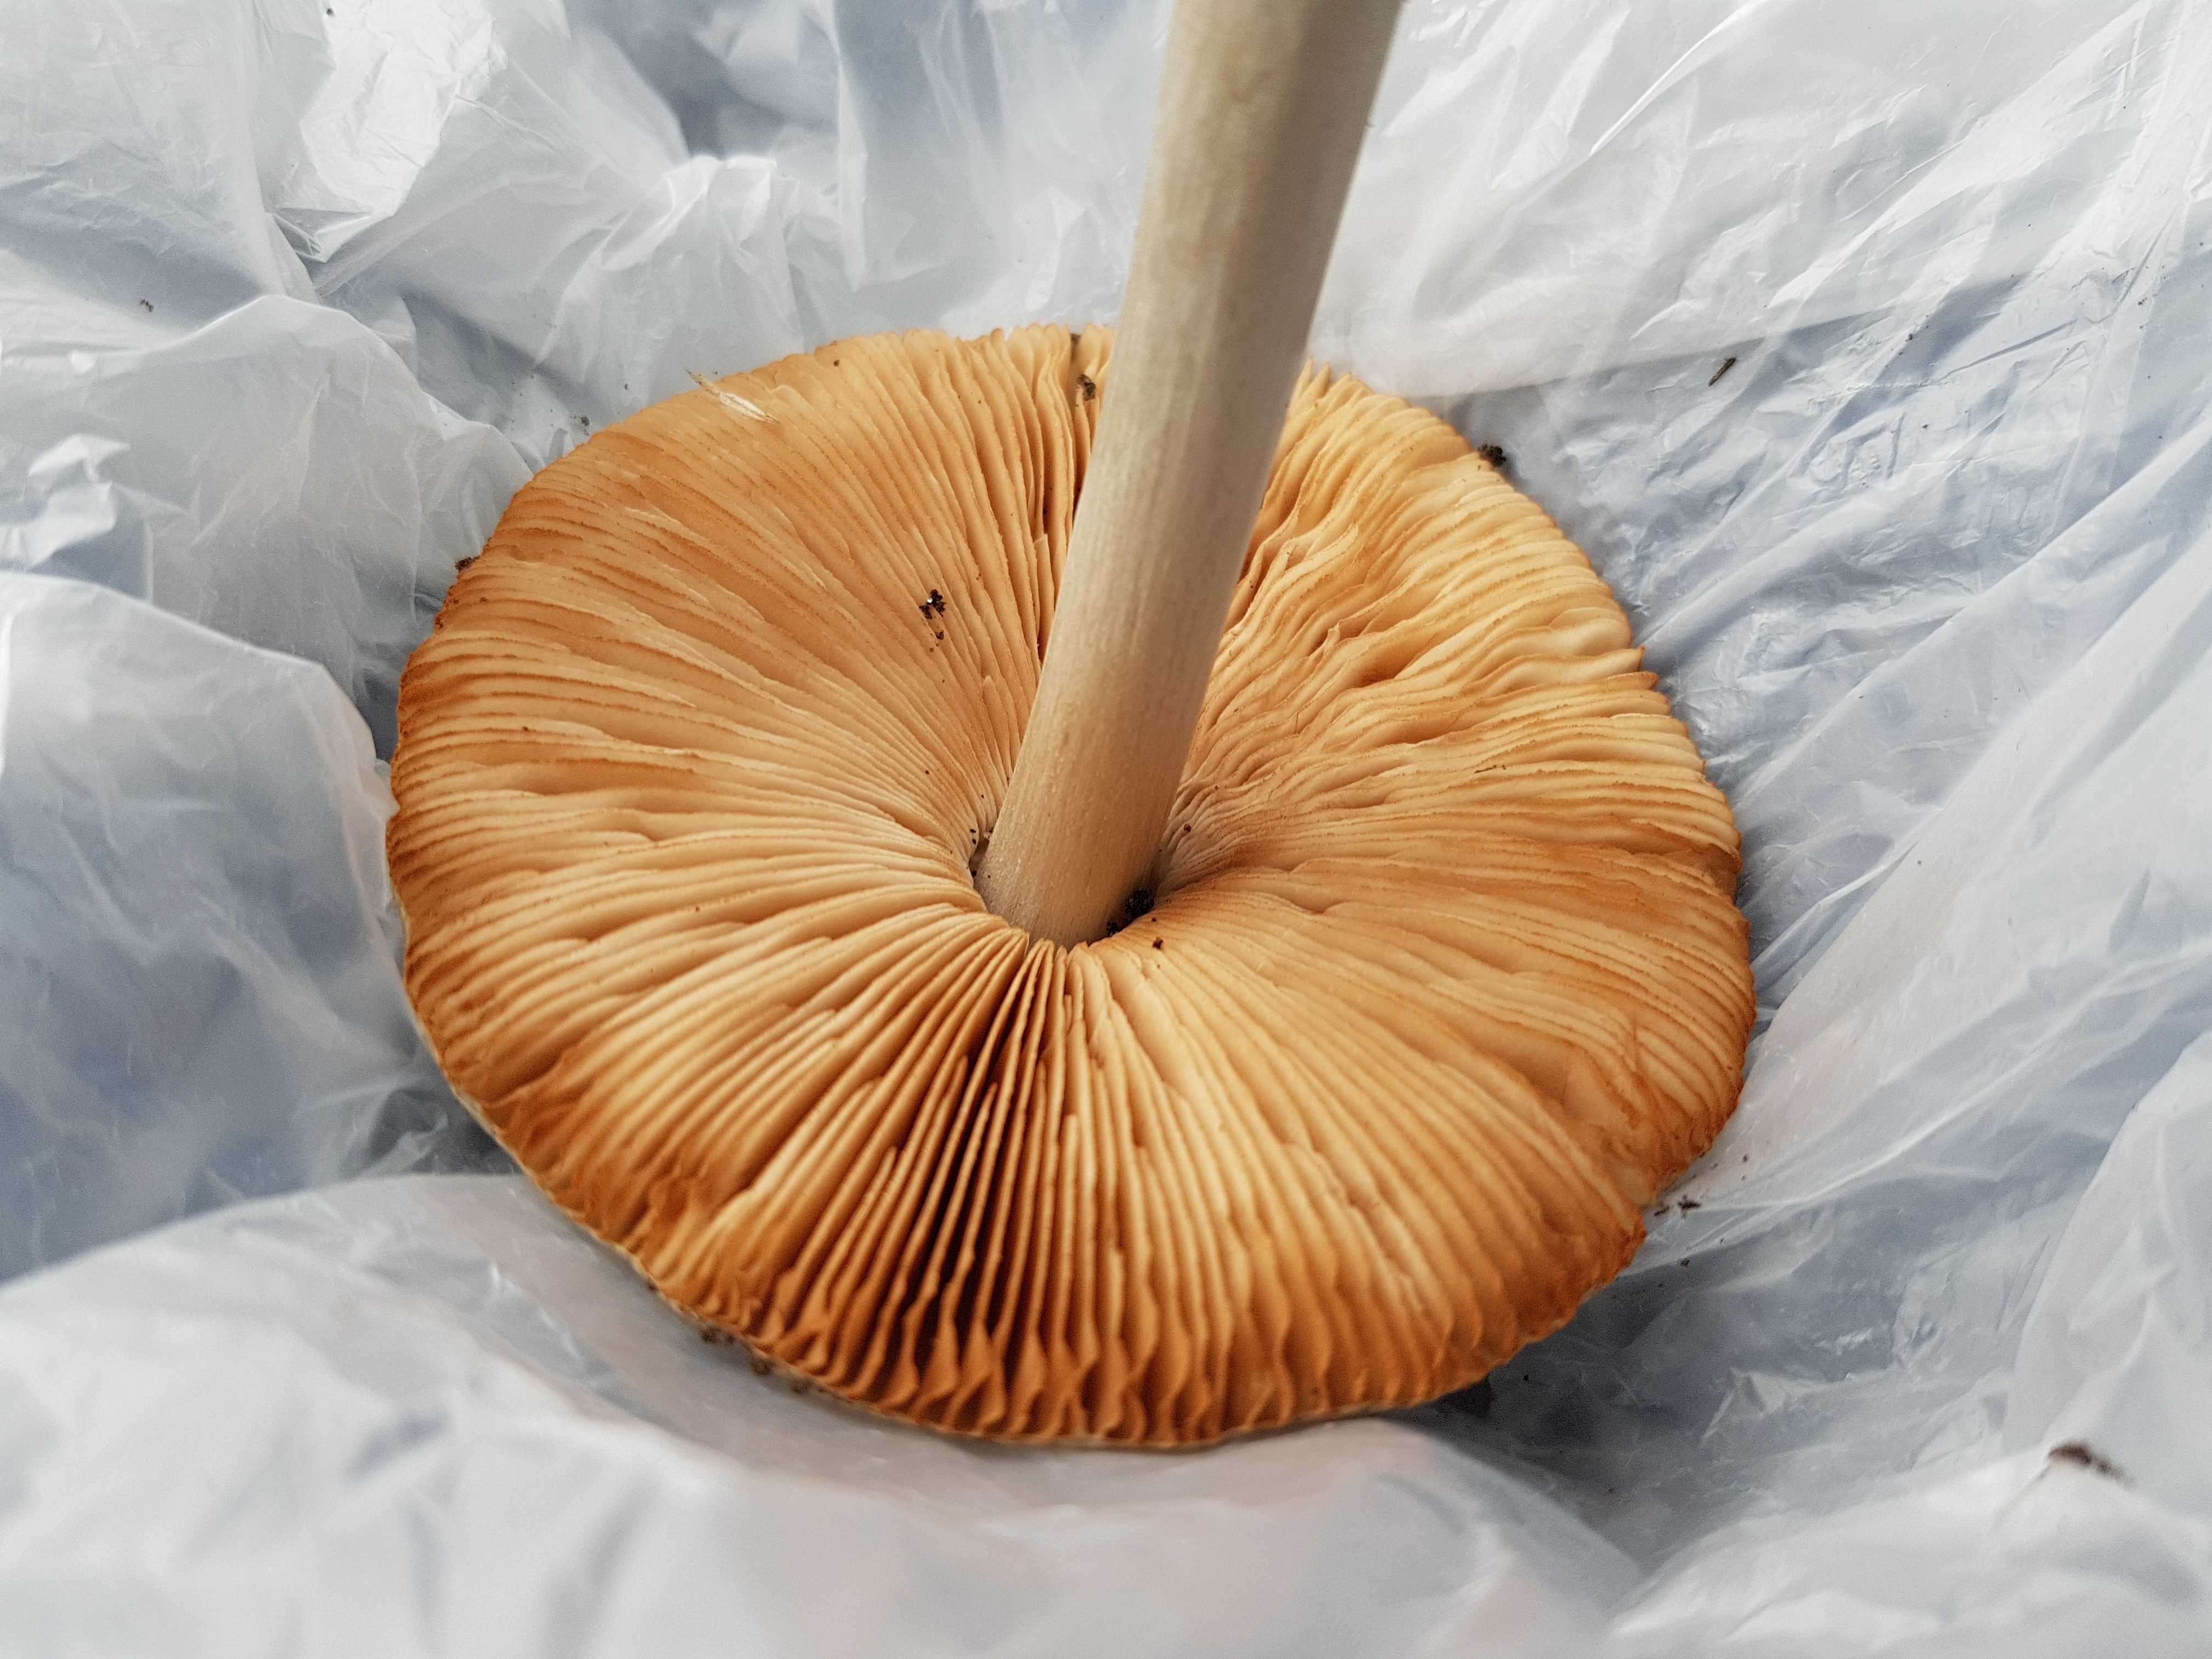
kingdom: Fungi
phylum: Basidiomycota
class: Agaricomycetes
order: Agaricales
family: Pluteaceae
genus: Volvopluteus
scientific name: Volvopluteus gloiocephalus
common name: høj posesvamp
